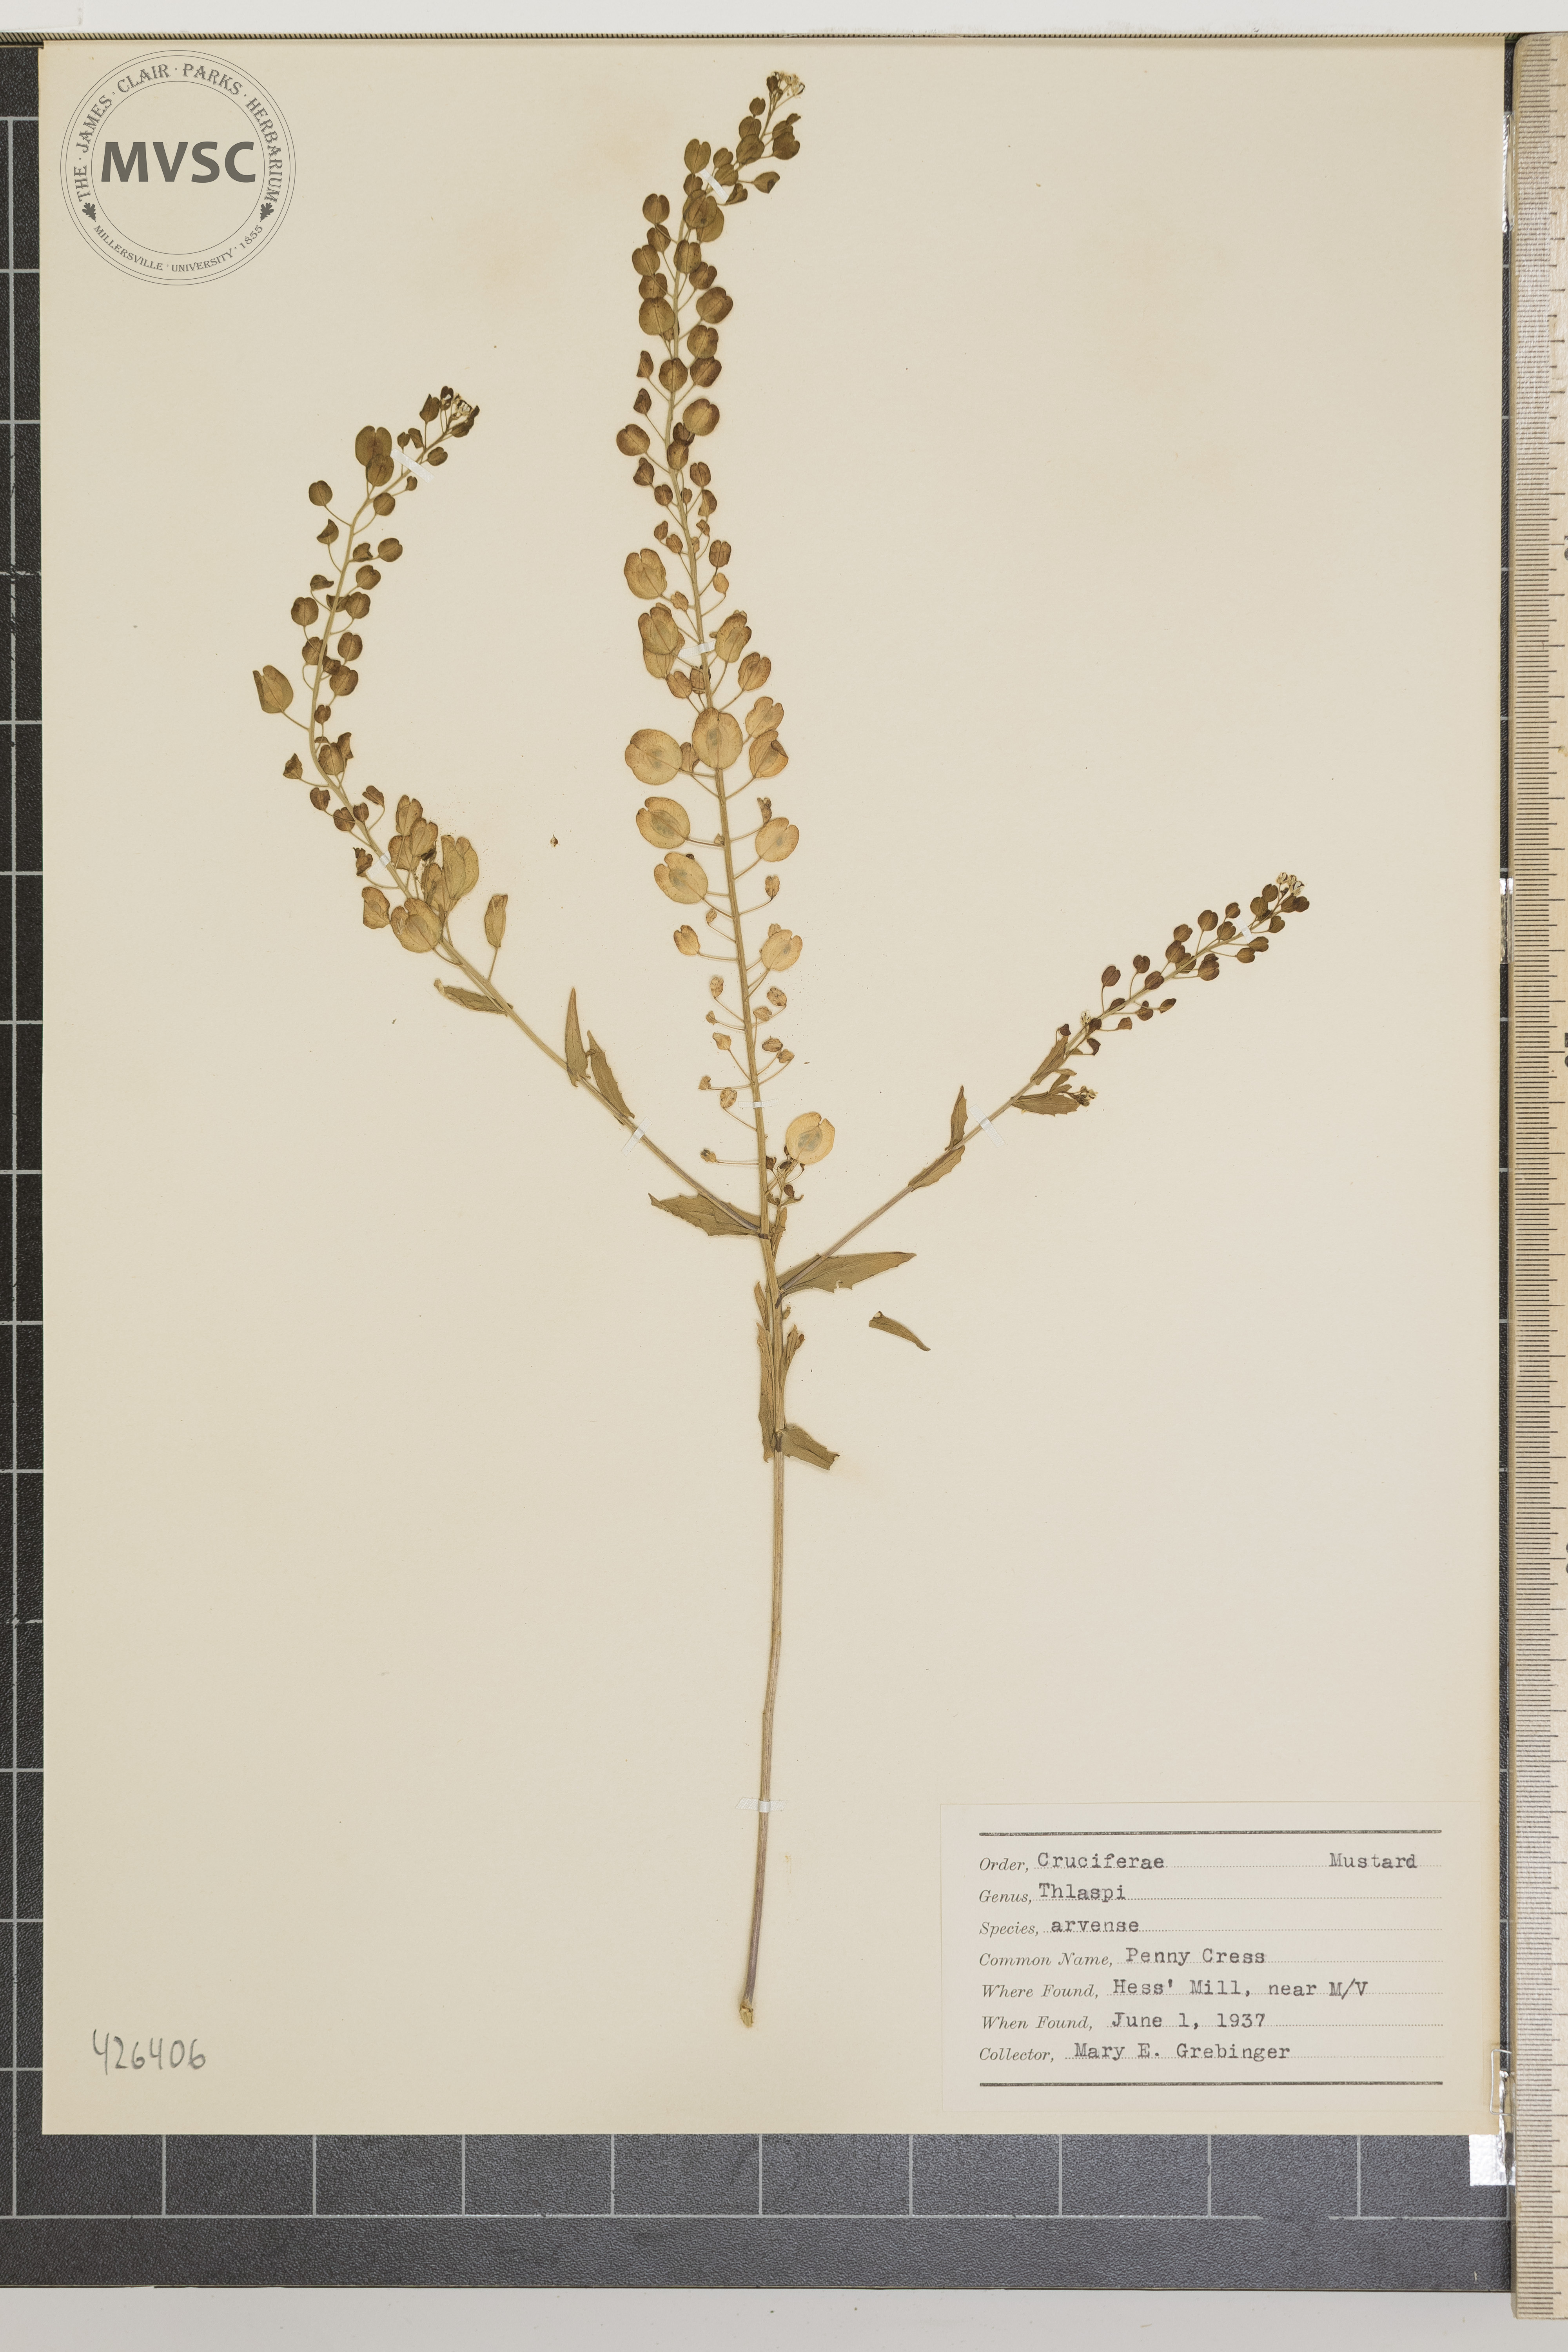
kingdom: Plantae
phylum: Tracheophyta
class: Magnoliopsida
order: Brassicales
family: Brassicaceae
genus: Thlaspi
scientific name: Thlaspi arvense
